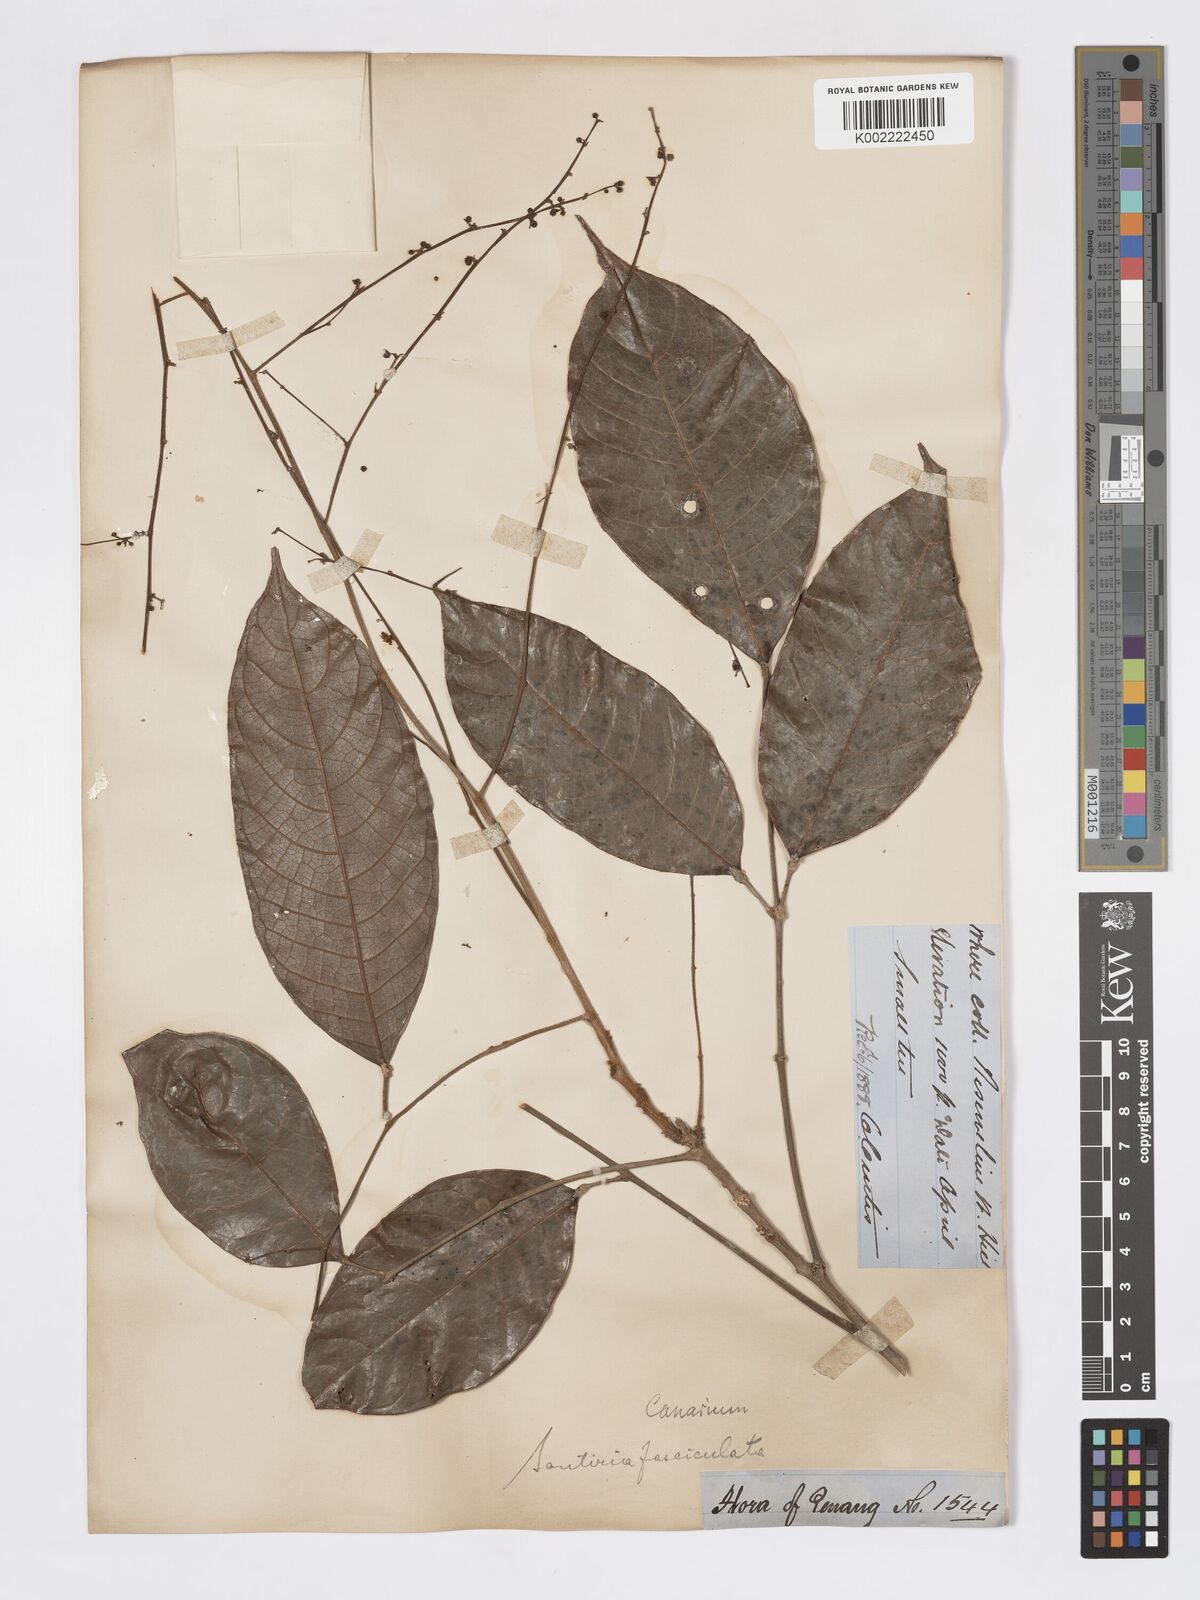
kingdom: Plantae
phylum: Tracheophyta
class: Magnoliopsida
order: Sapindales
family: Burseraceae
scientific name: Burseraceae
